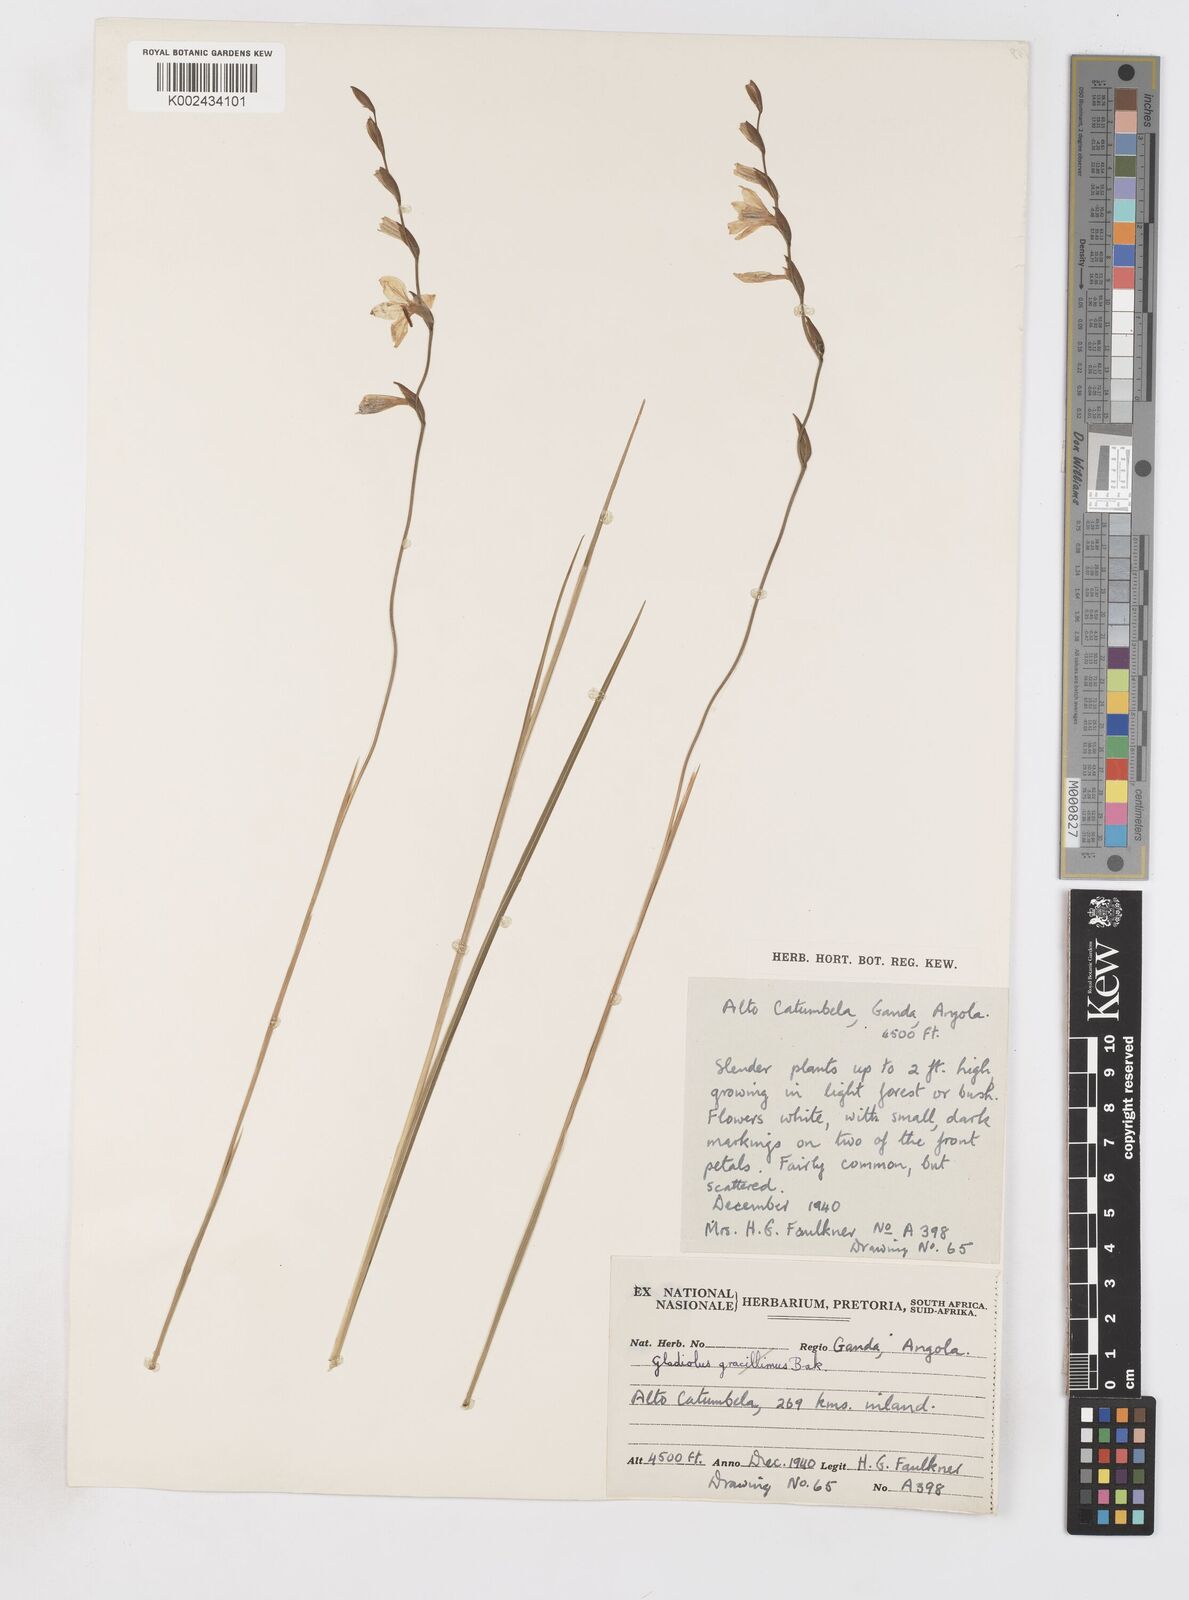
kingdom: Plantae
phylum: Tracheophyta
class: Liliopsida
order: Asparagales
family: Iridaceae
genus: Gladiolus
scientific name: Gladiolus atropurpureus
